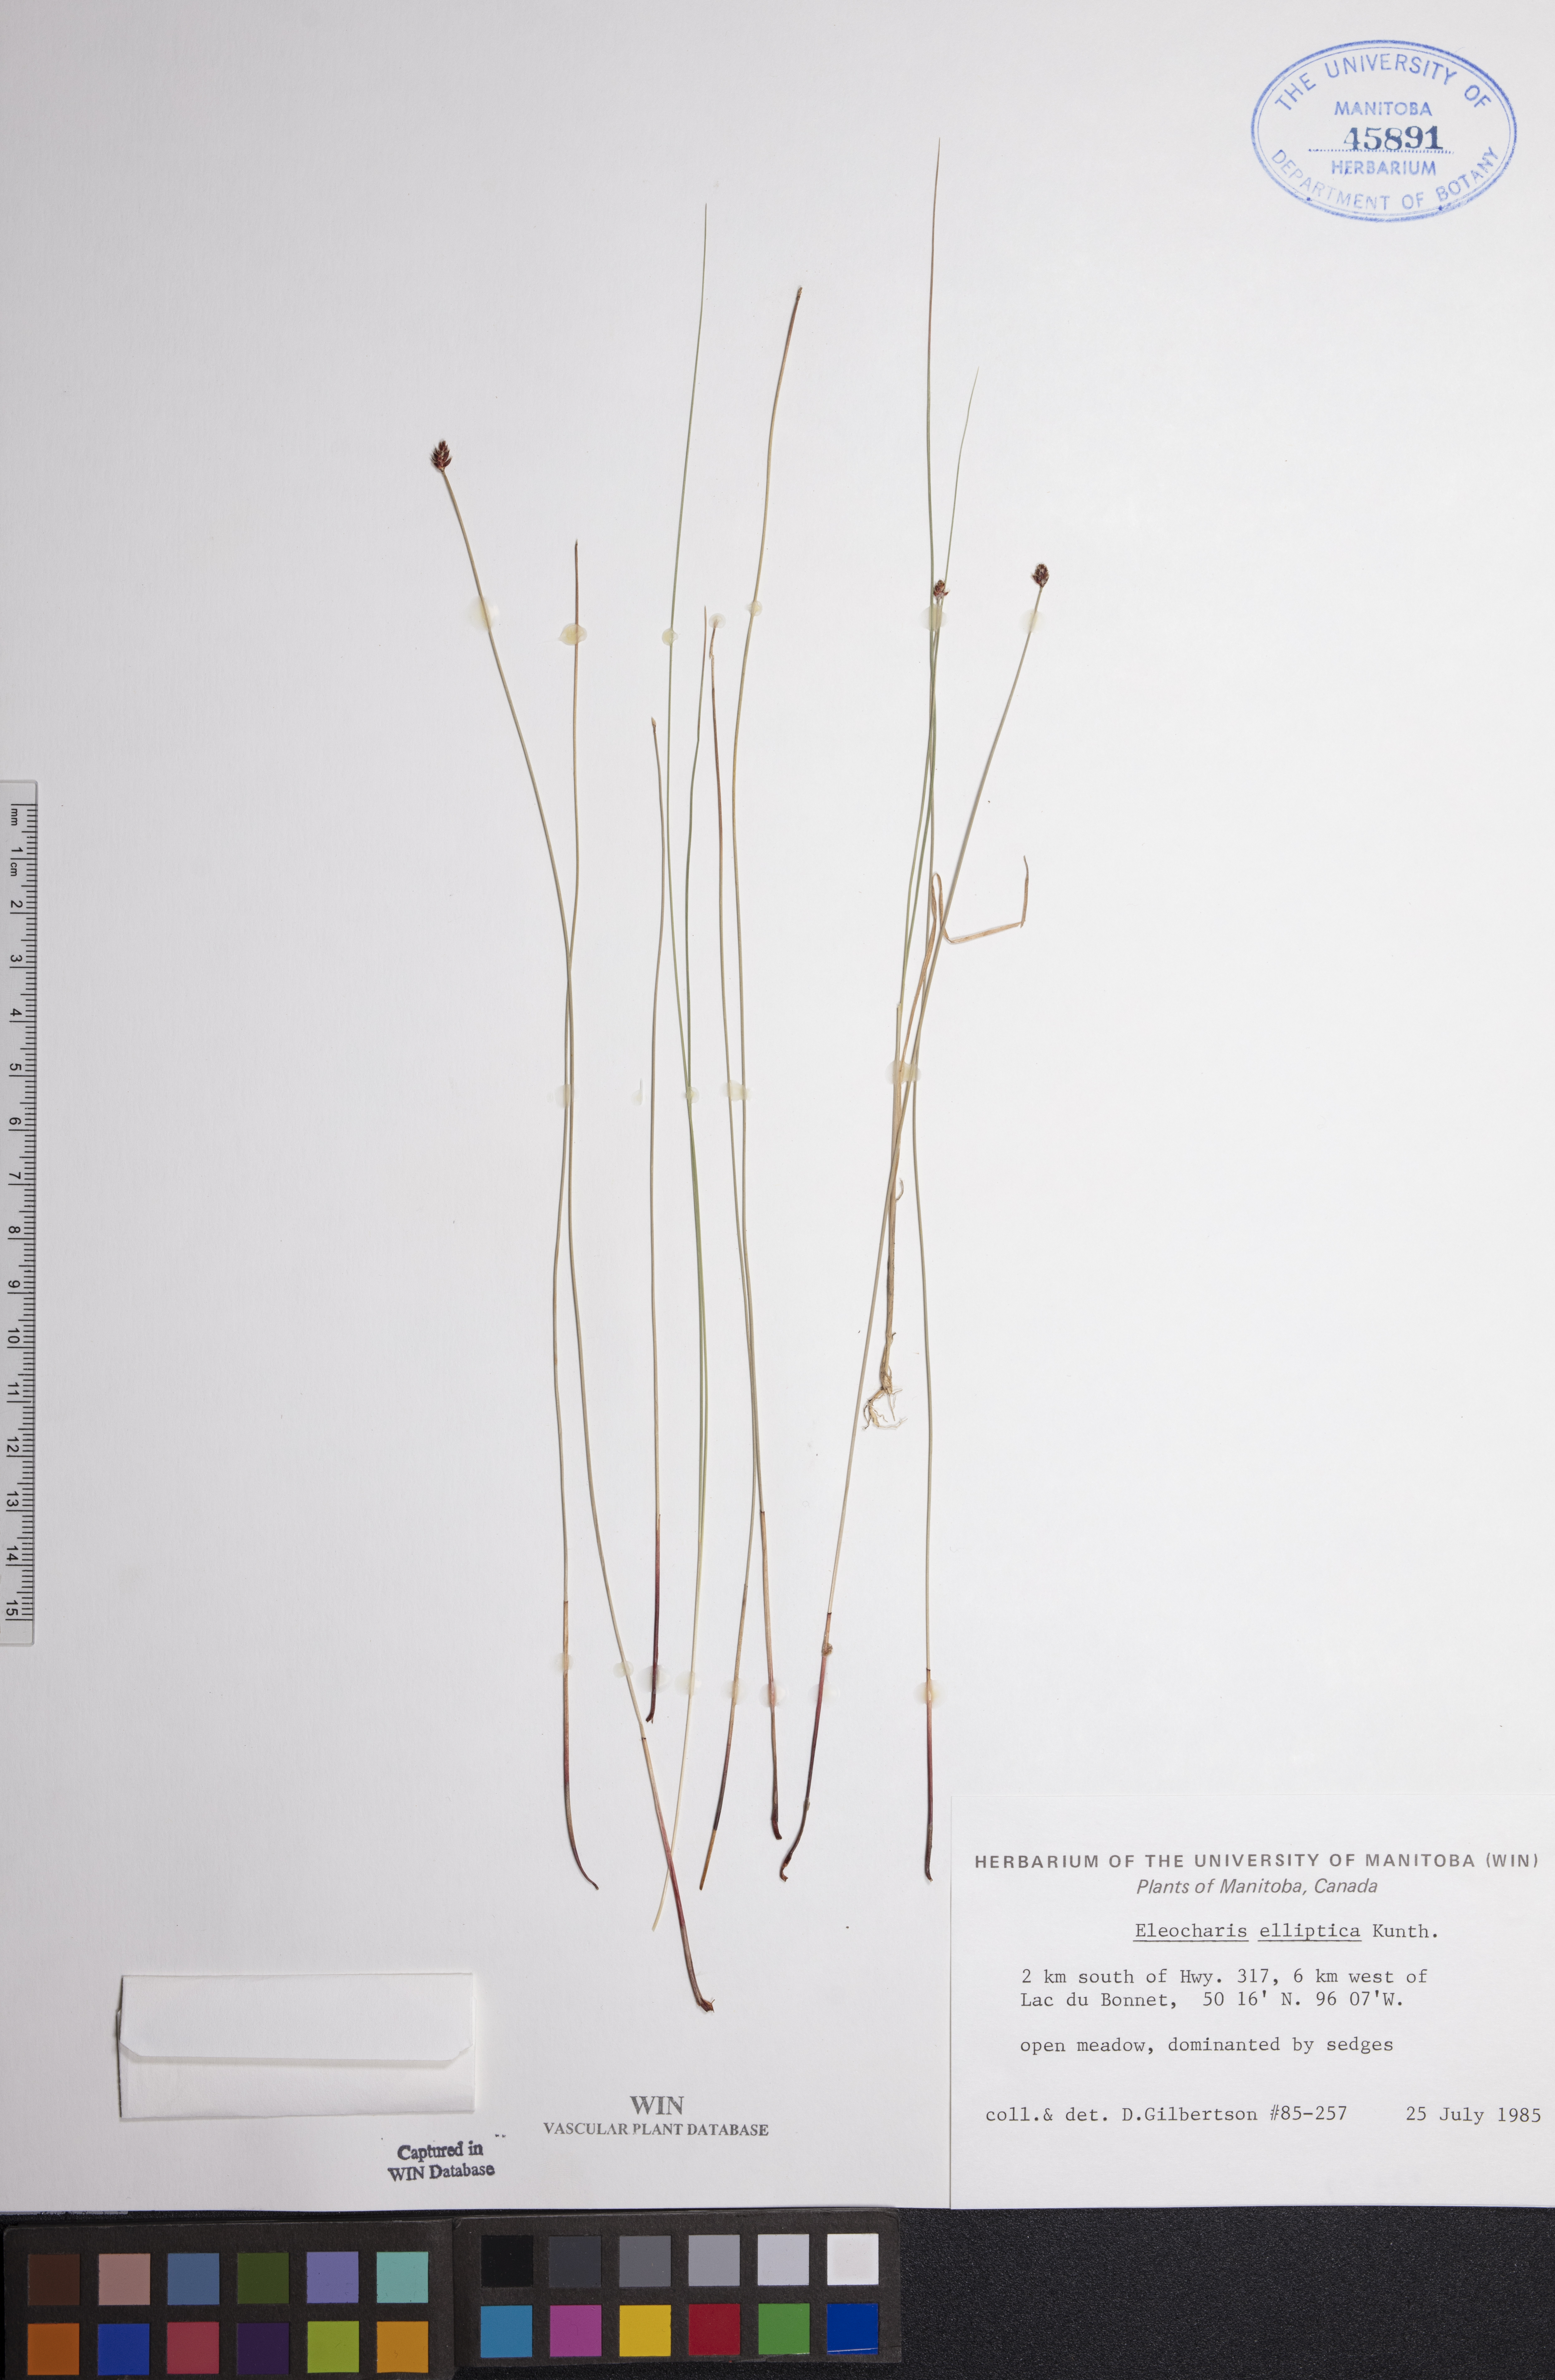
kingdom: Plantae
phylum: Tracheophyta
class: Liliopsida
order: Poales
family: Cyperaceae
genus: Eleocharis
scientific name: Eleocharis elliptica
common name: Capitate spikerush
